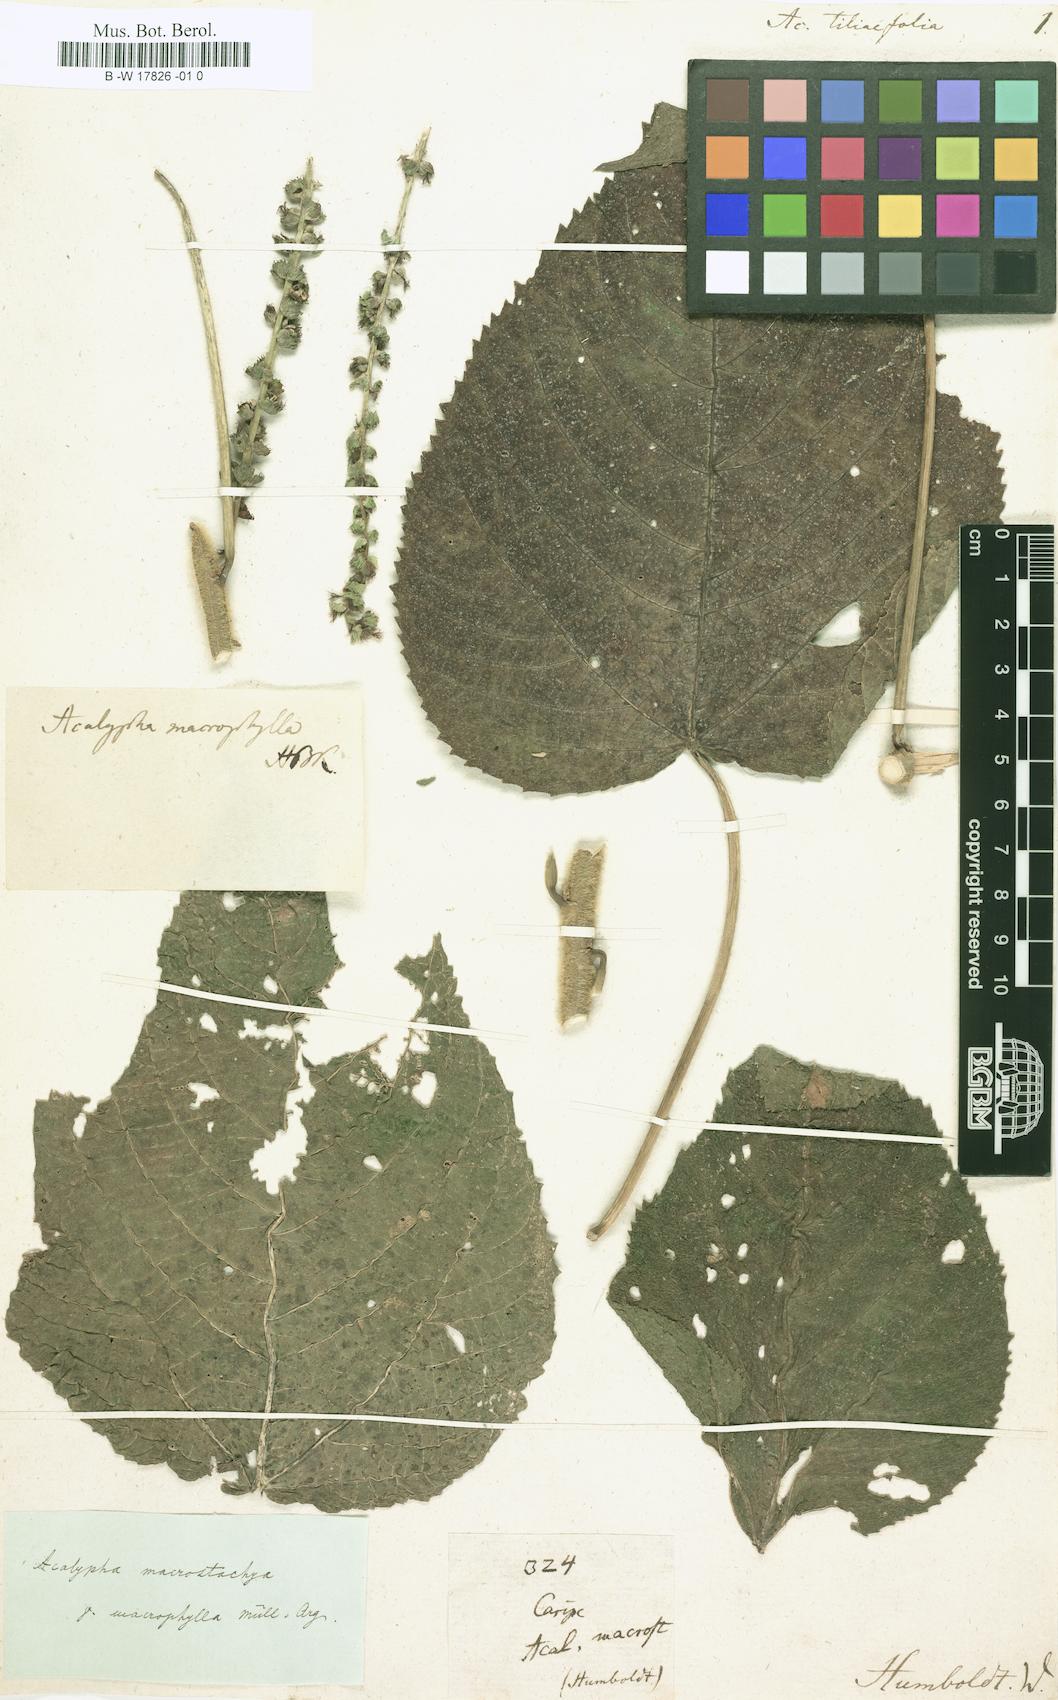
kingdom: Plantae
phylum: Tracheophyta
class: Magnoliopsida
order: Malpighiales
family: Euphorbiaceae
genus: Acalypha
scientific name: Acalypha tiliifolia
